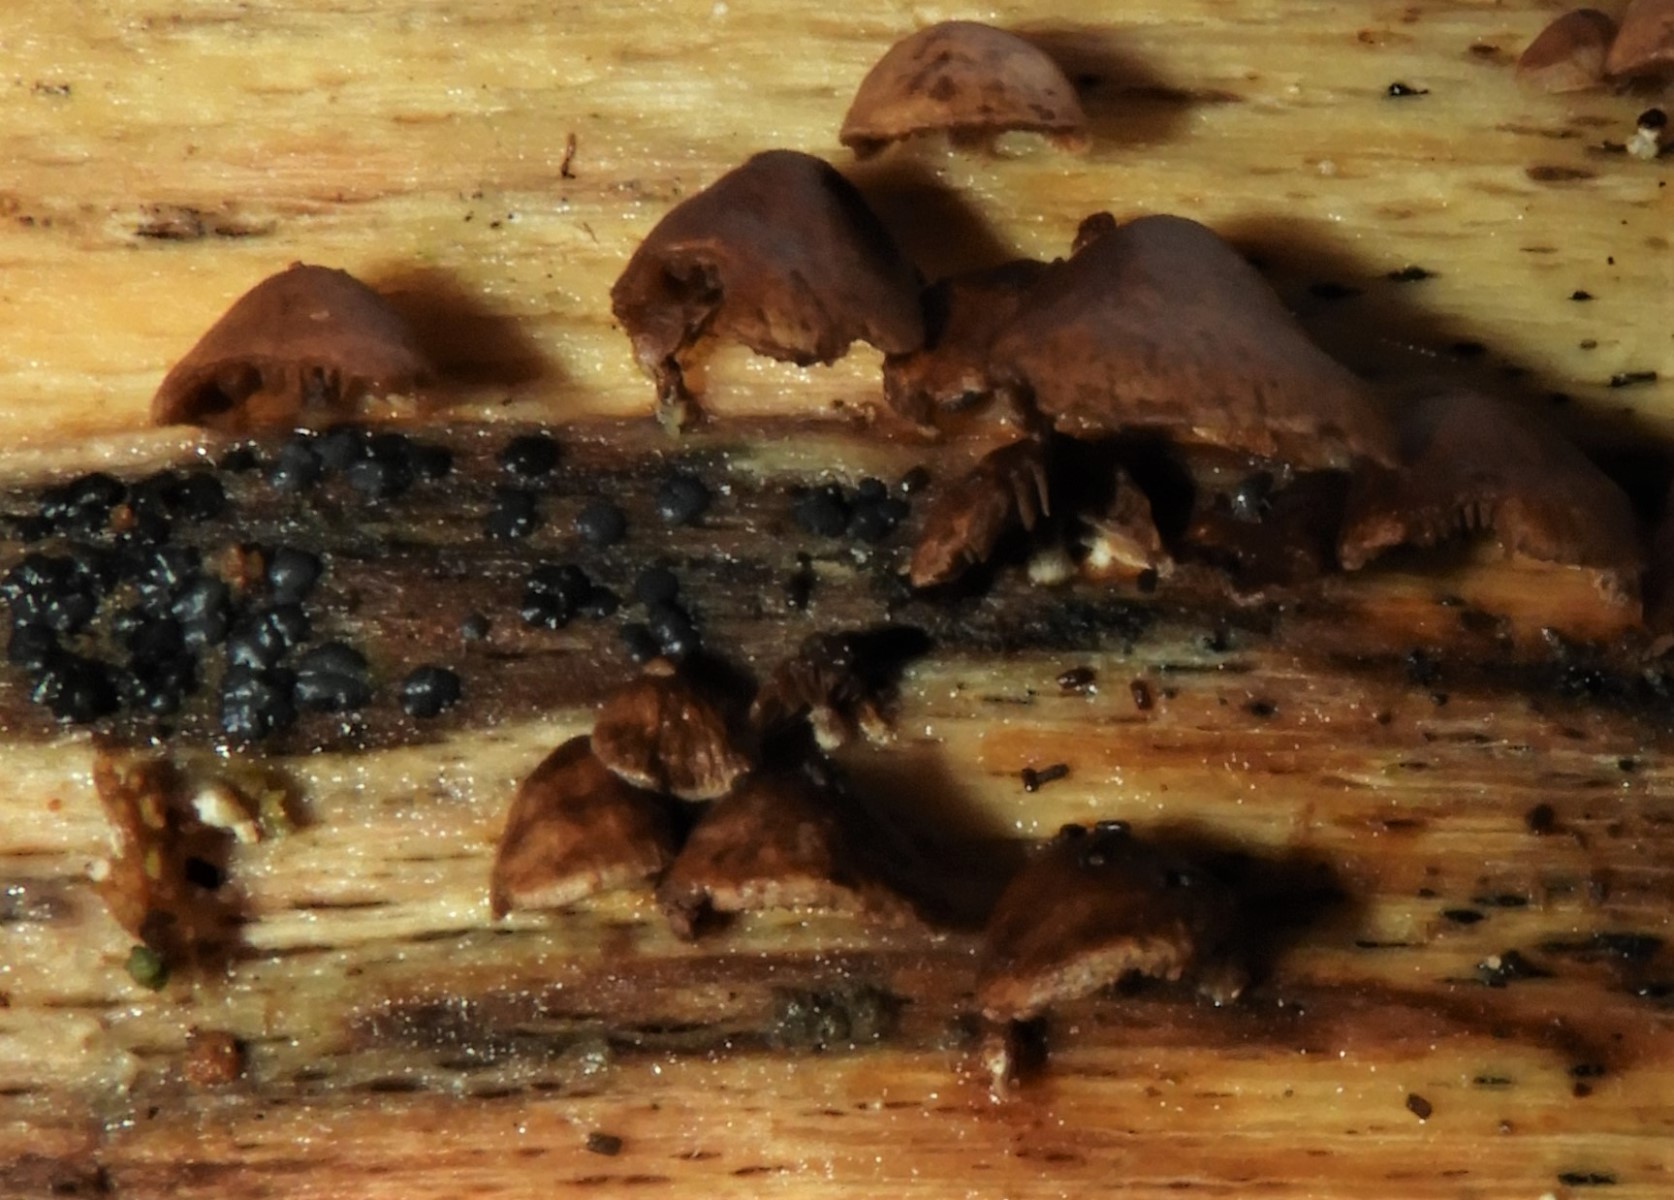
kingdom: Fungi
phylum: Basidiomycota
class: Agaricomycetes
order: Agaricales
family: Strophariaceae
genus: Deconica
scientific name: Deconica horizontalis
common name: ved-stråhat
